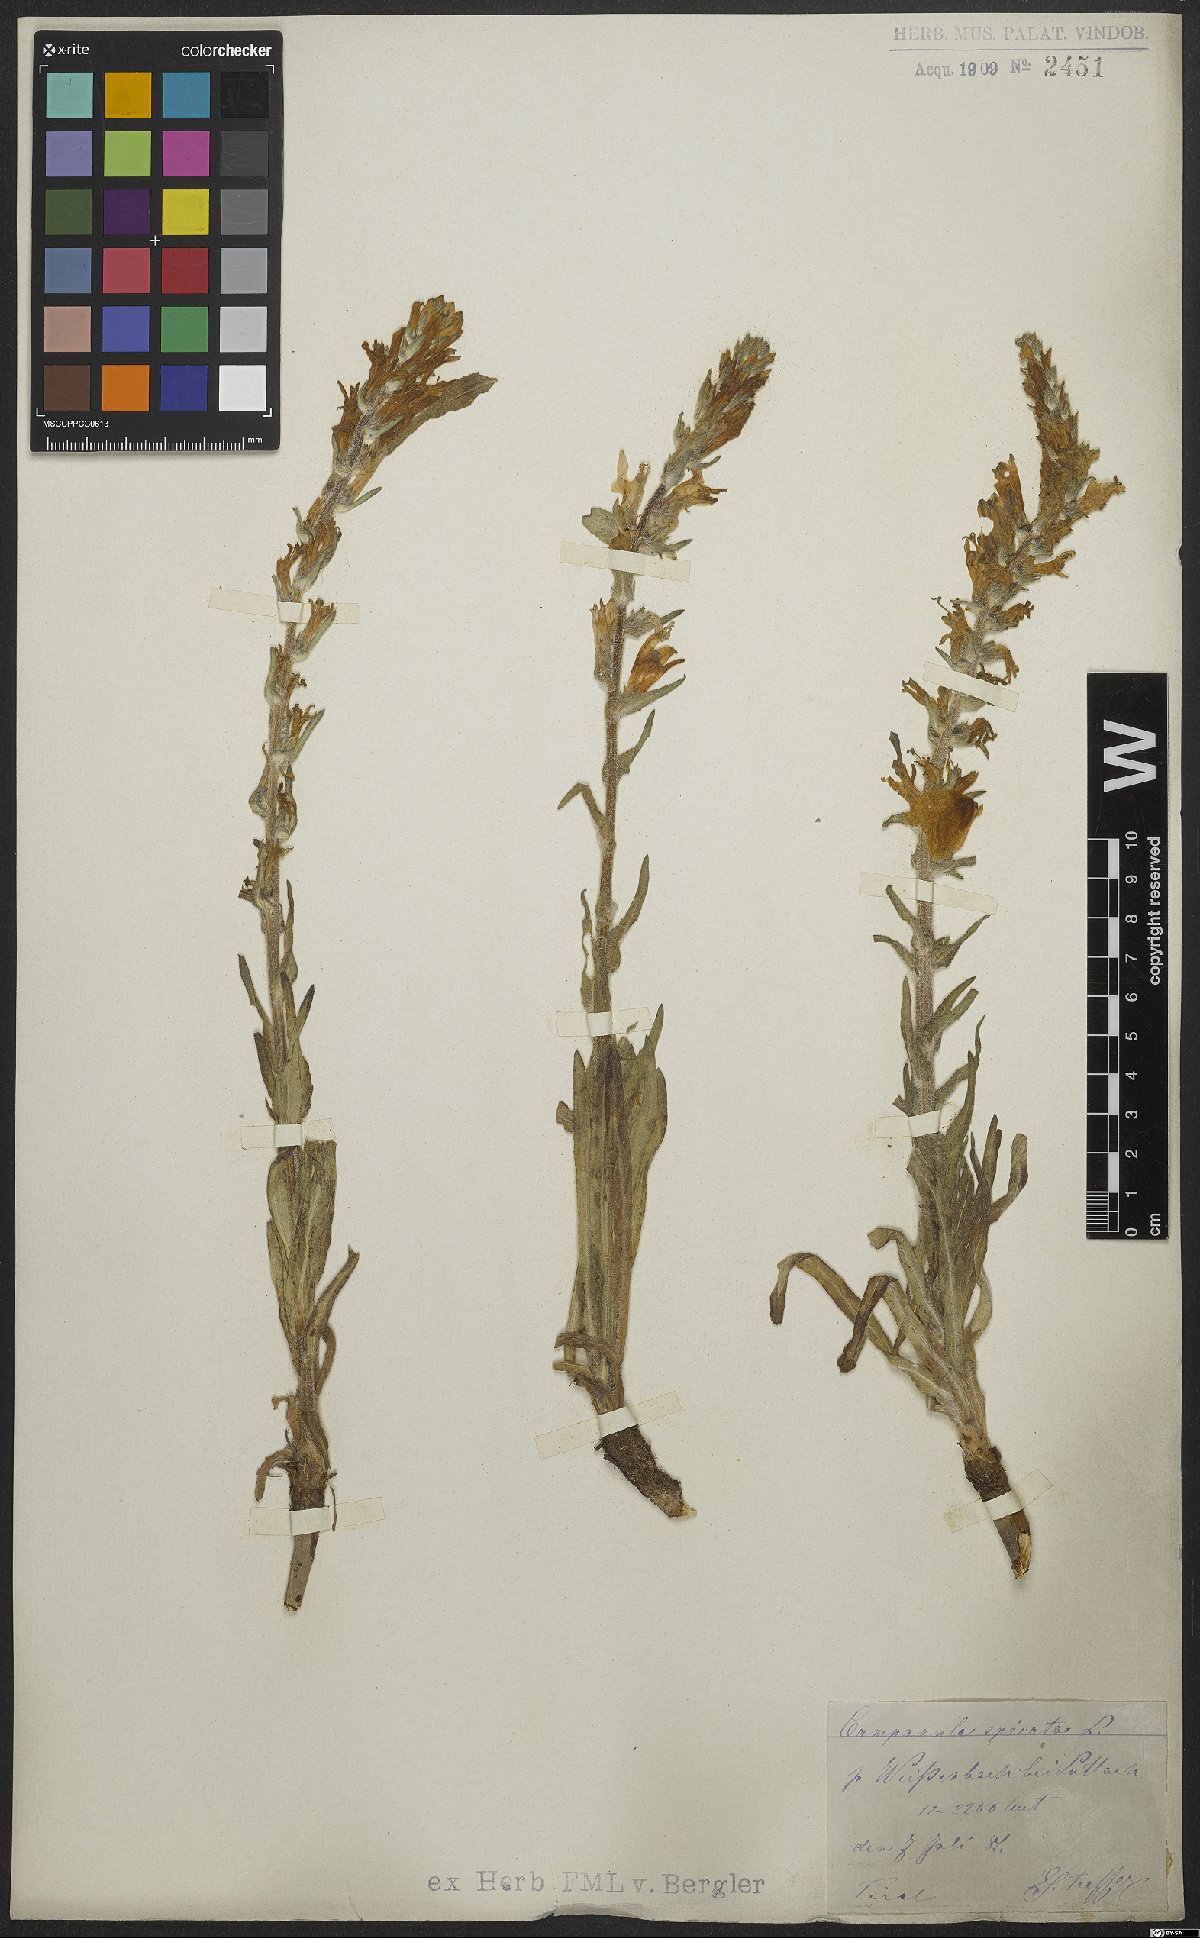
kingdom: Plantae
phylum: Tracheophyta
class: Magnoliopsida
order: Asterales
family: Campanulaceae
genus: Campanula
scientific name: Campanula spicata
